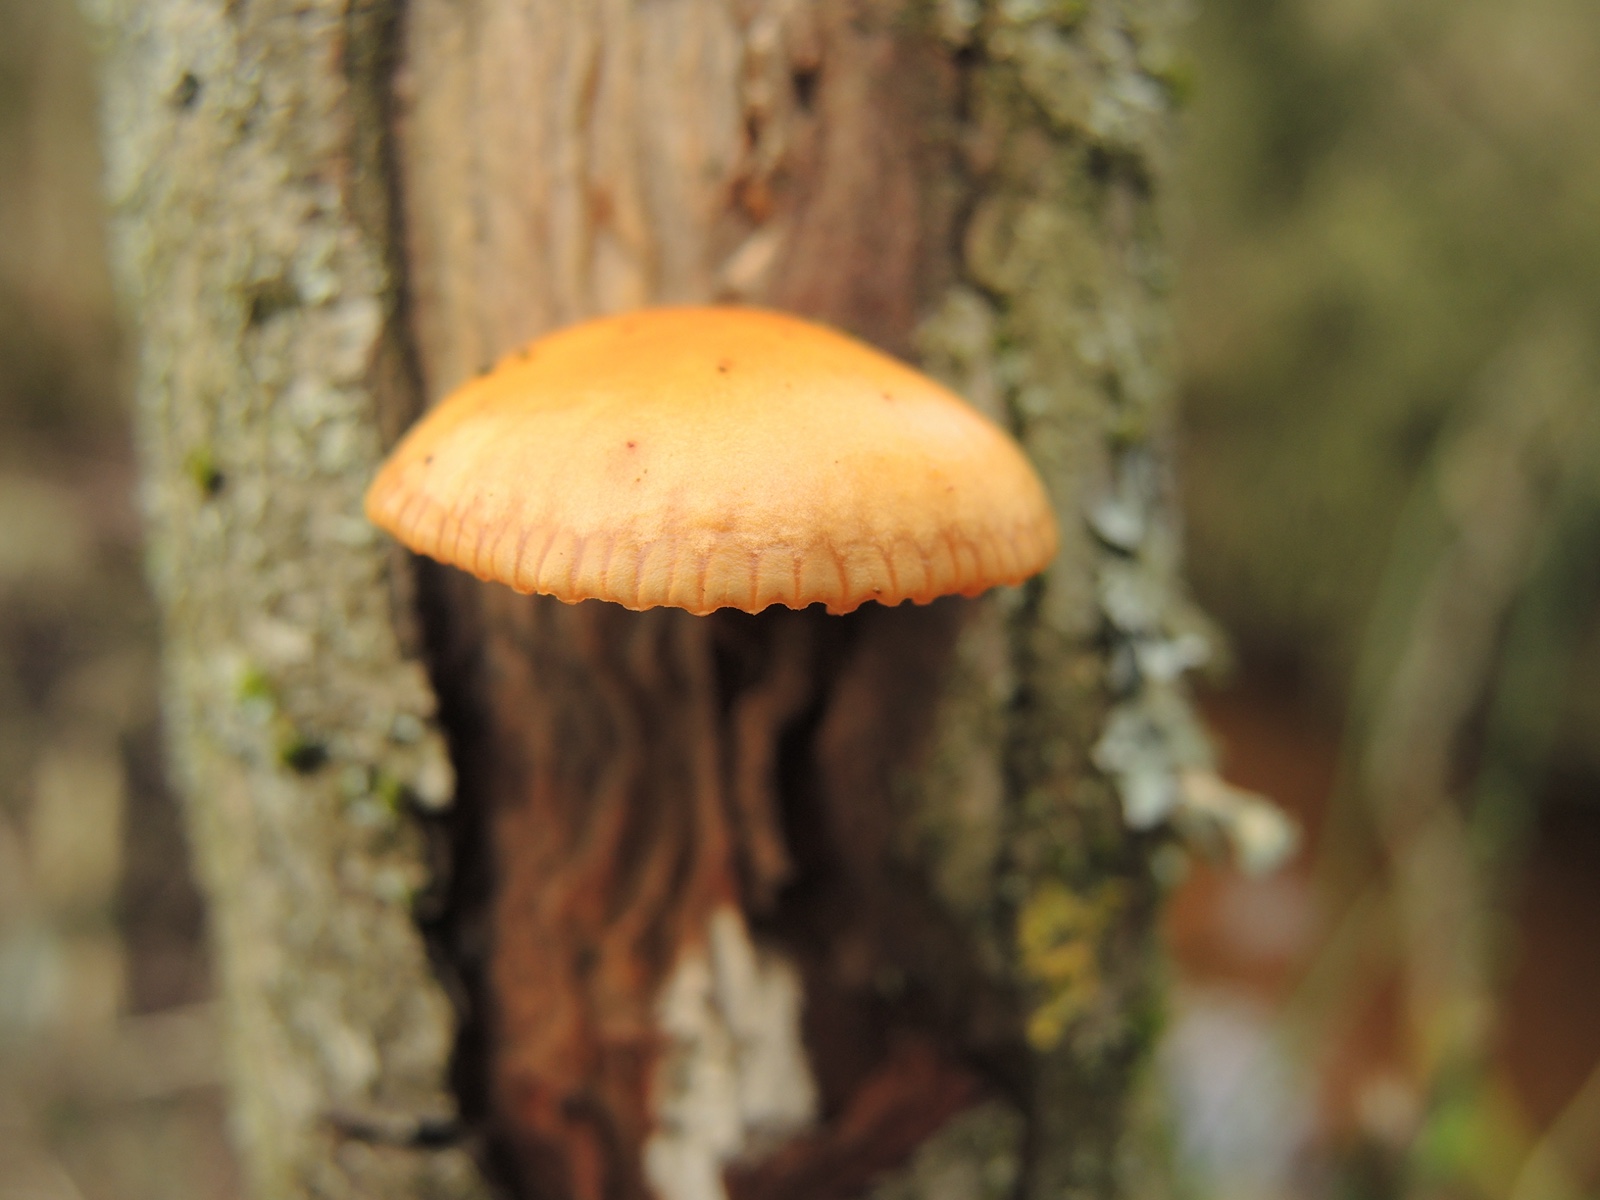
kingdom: Fungi
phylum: Basidiomycota
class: Agaricomycetes
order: Agaricales
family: Physalacriaceae
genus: Flammulina
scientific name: Flammulina
